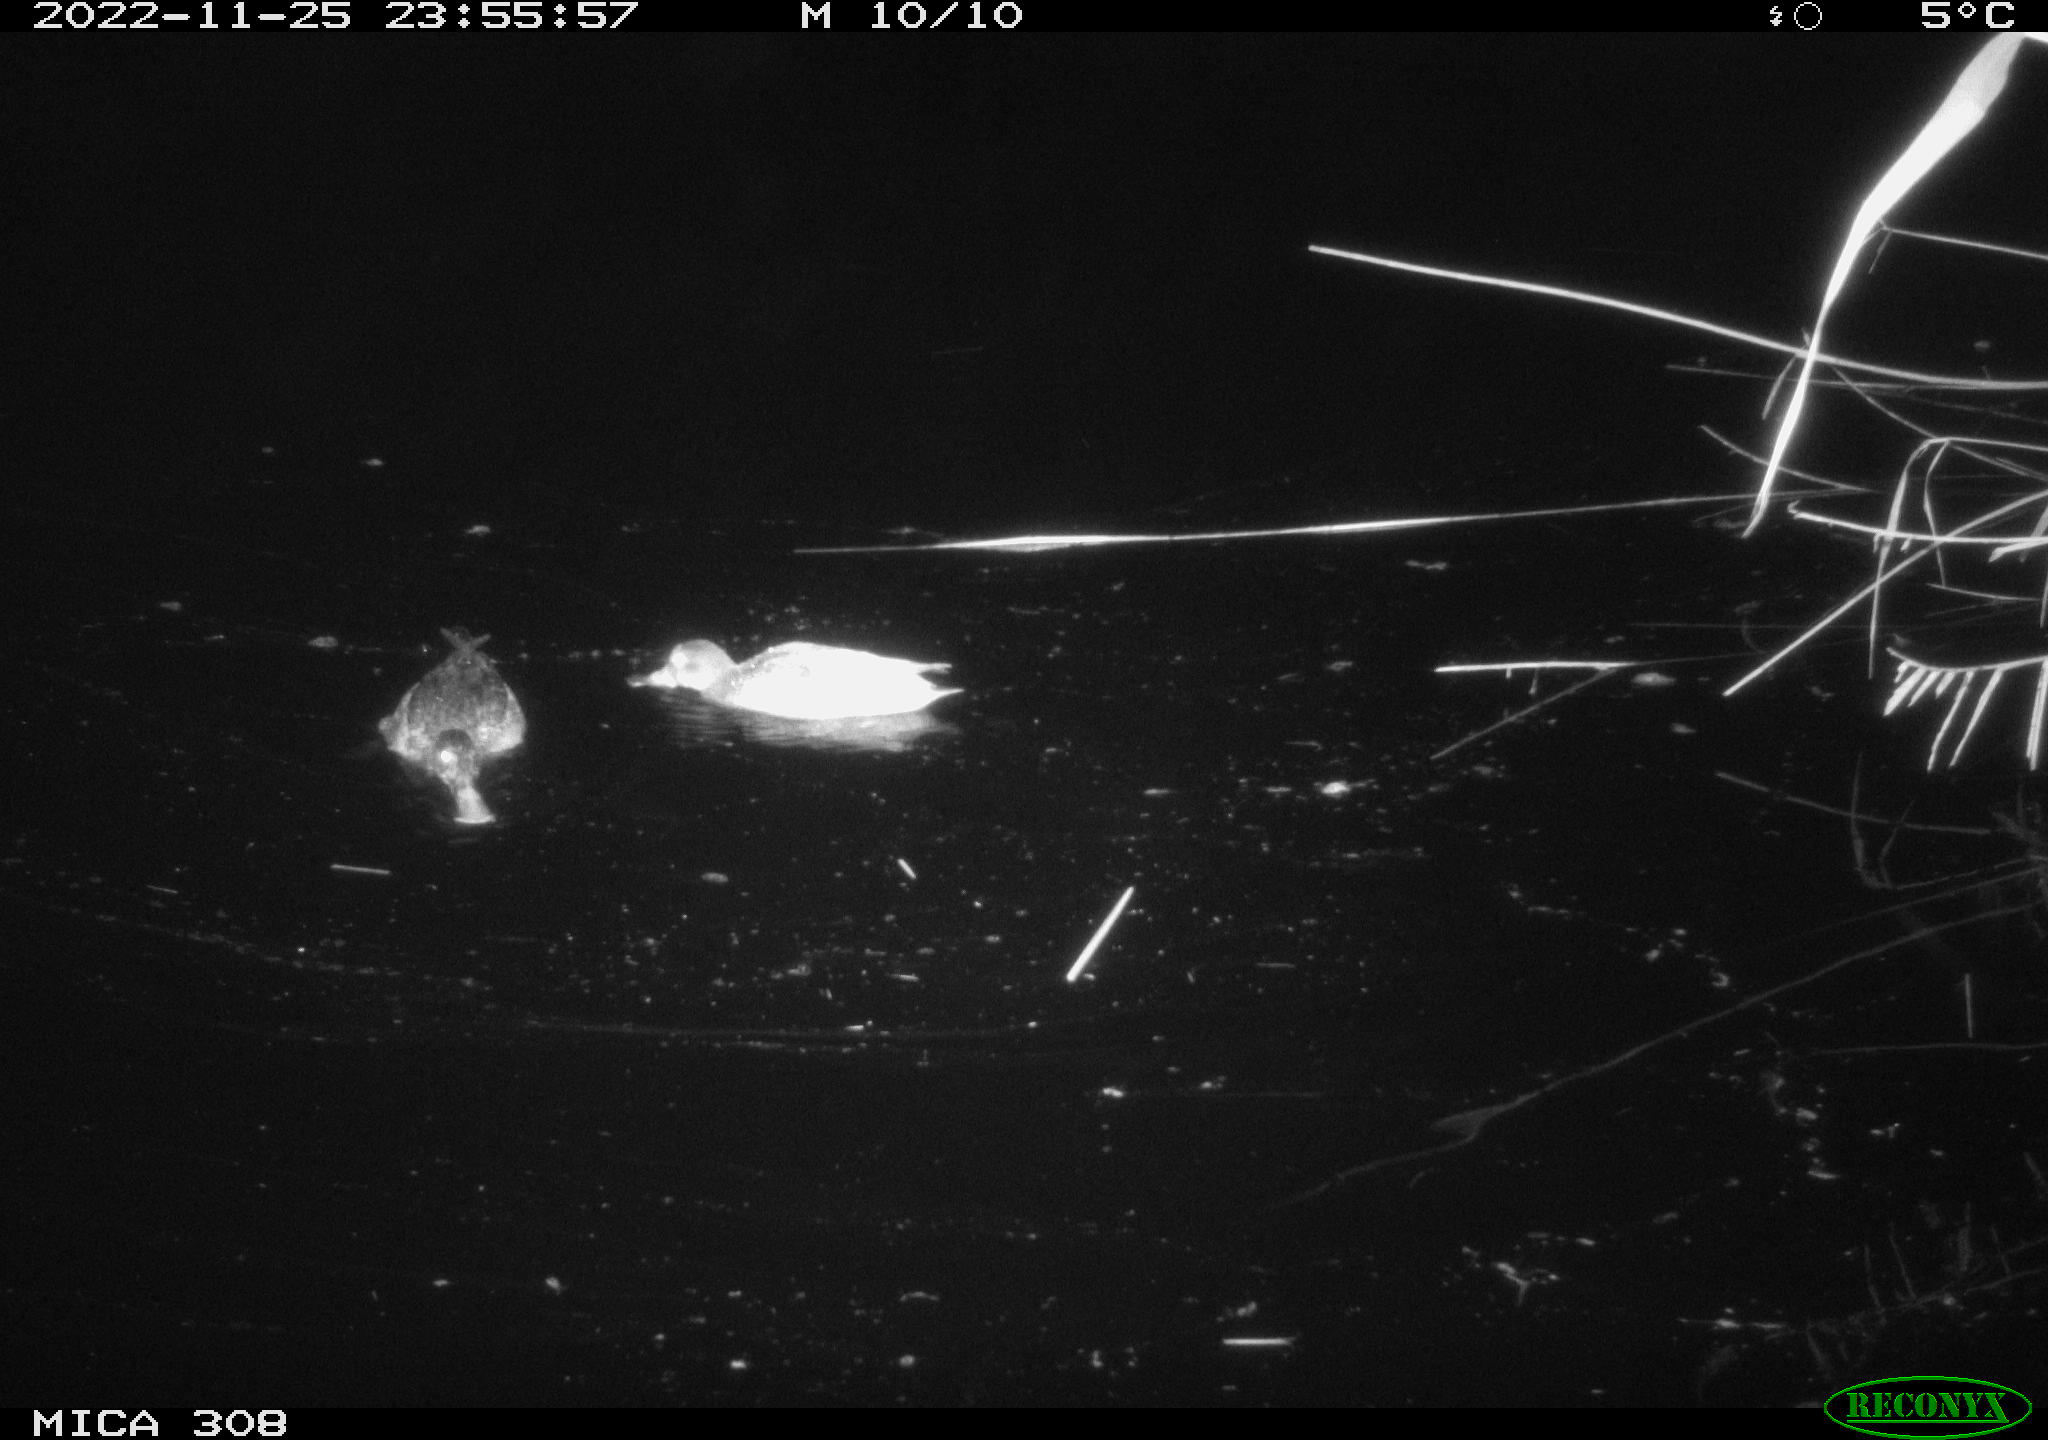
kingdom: Animalia
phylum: Chordata
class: Aves
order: Anseriformes
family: Anatidae
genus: Anas
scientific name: Anas
